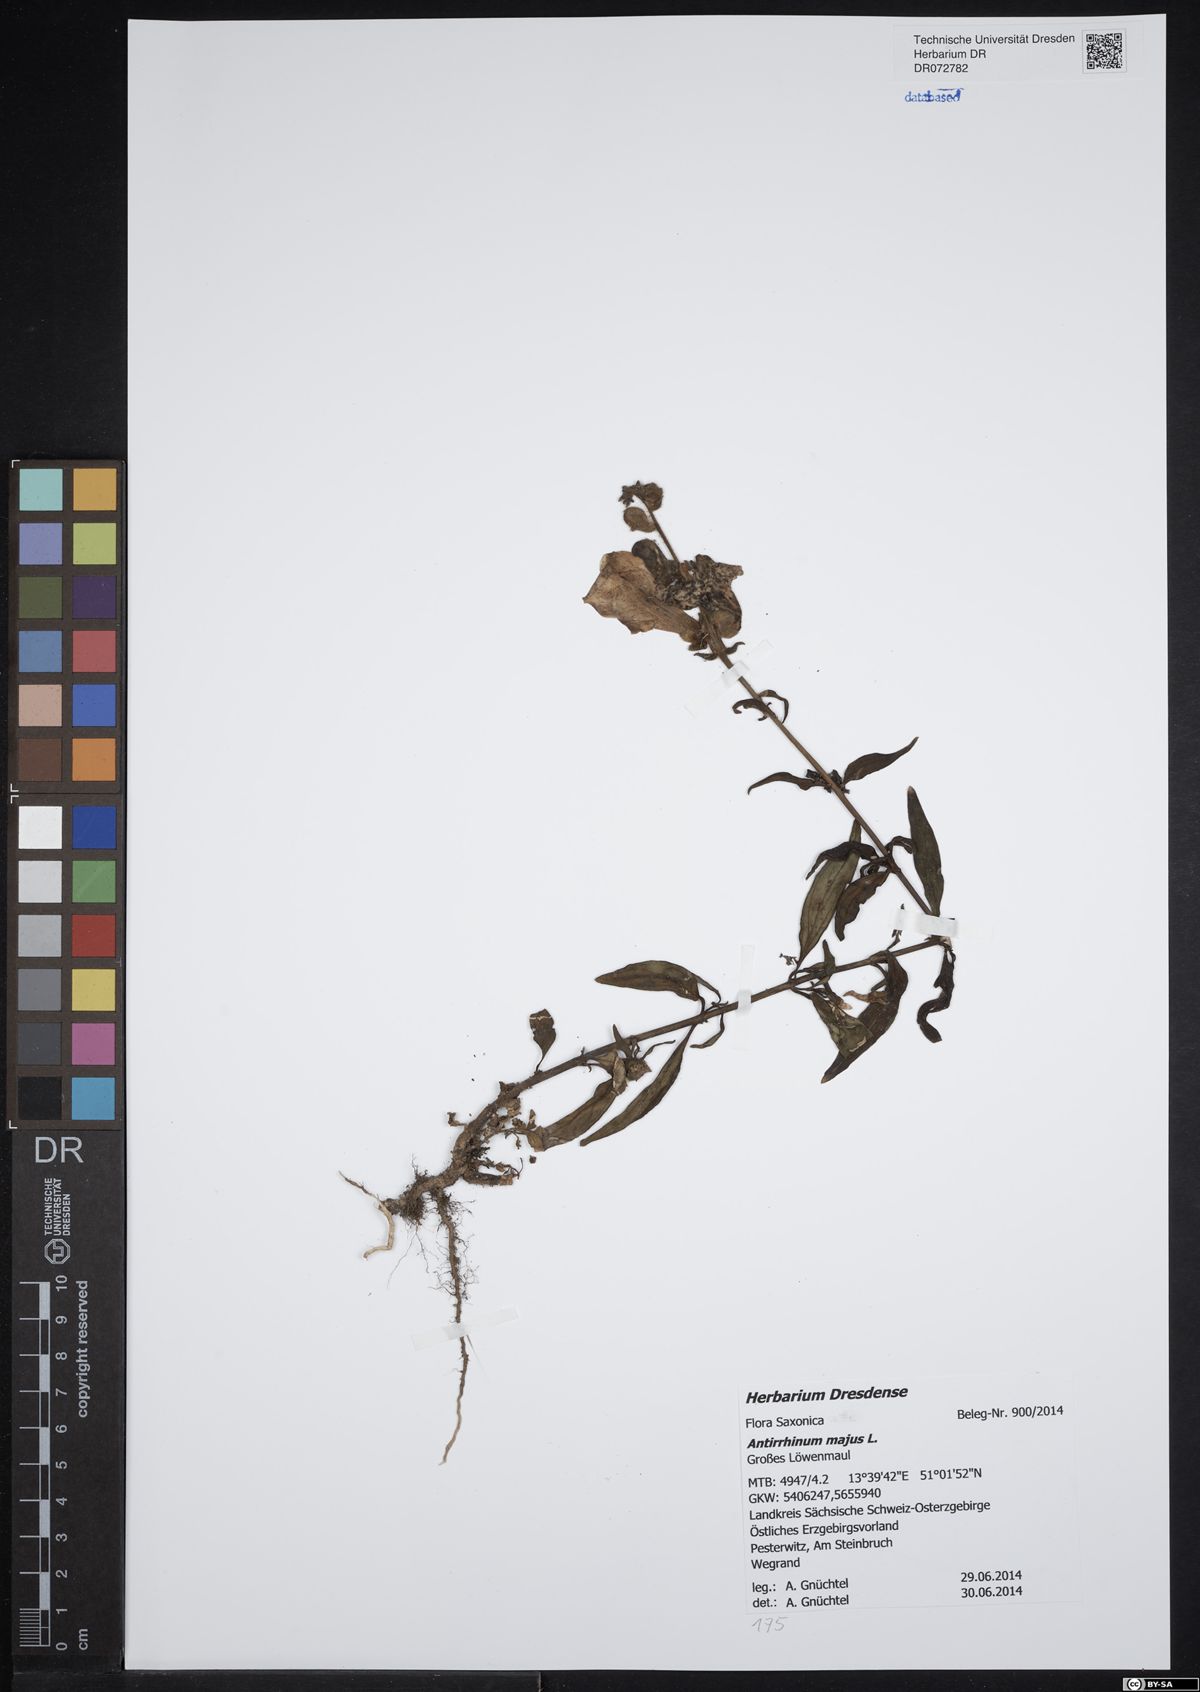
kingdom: Plantae
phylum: Tracheophyta
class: Magnoliopsida
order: Lamiales
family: Plantaginaceae
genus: Antirrhinum
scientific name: Antirrhinum majus
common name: Snapdragon
